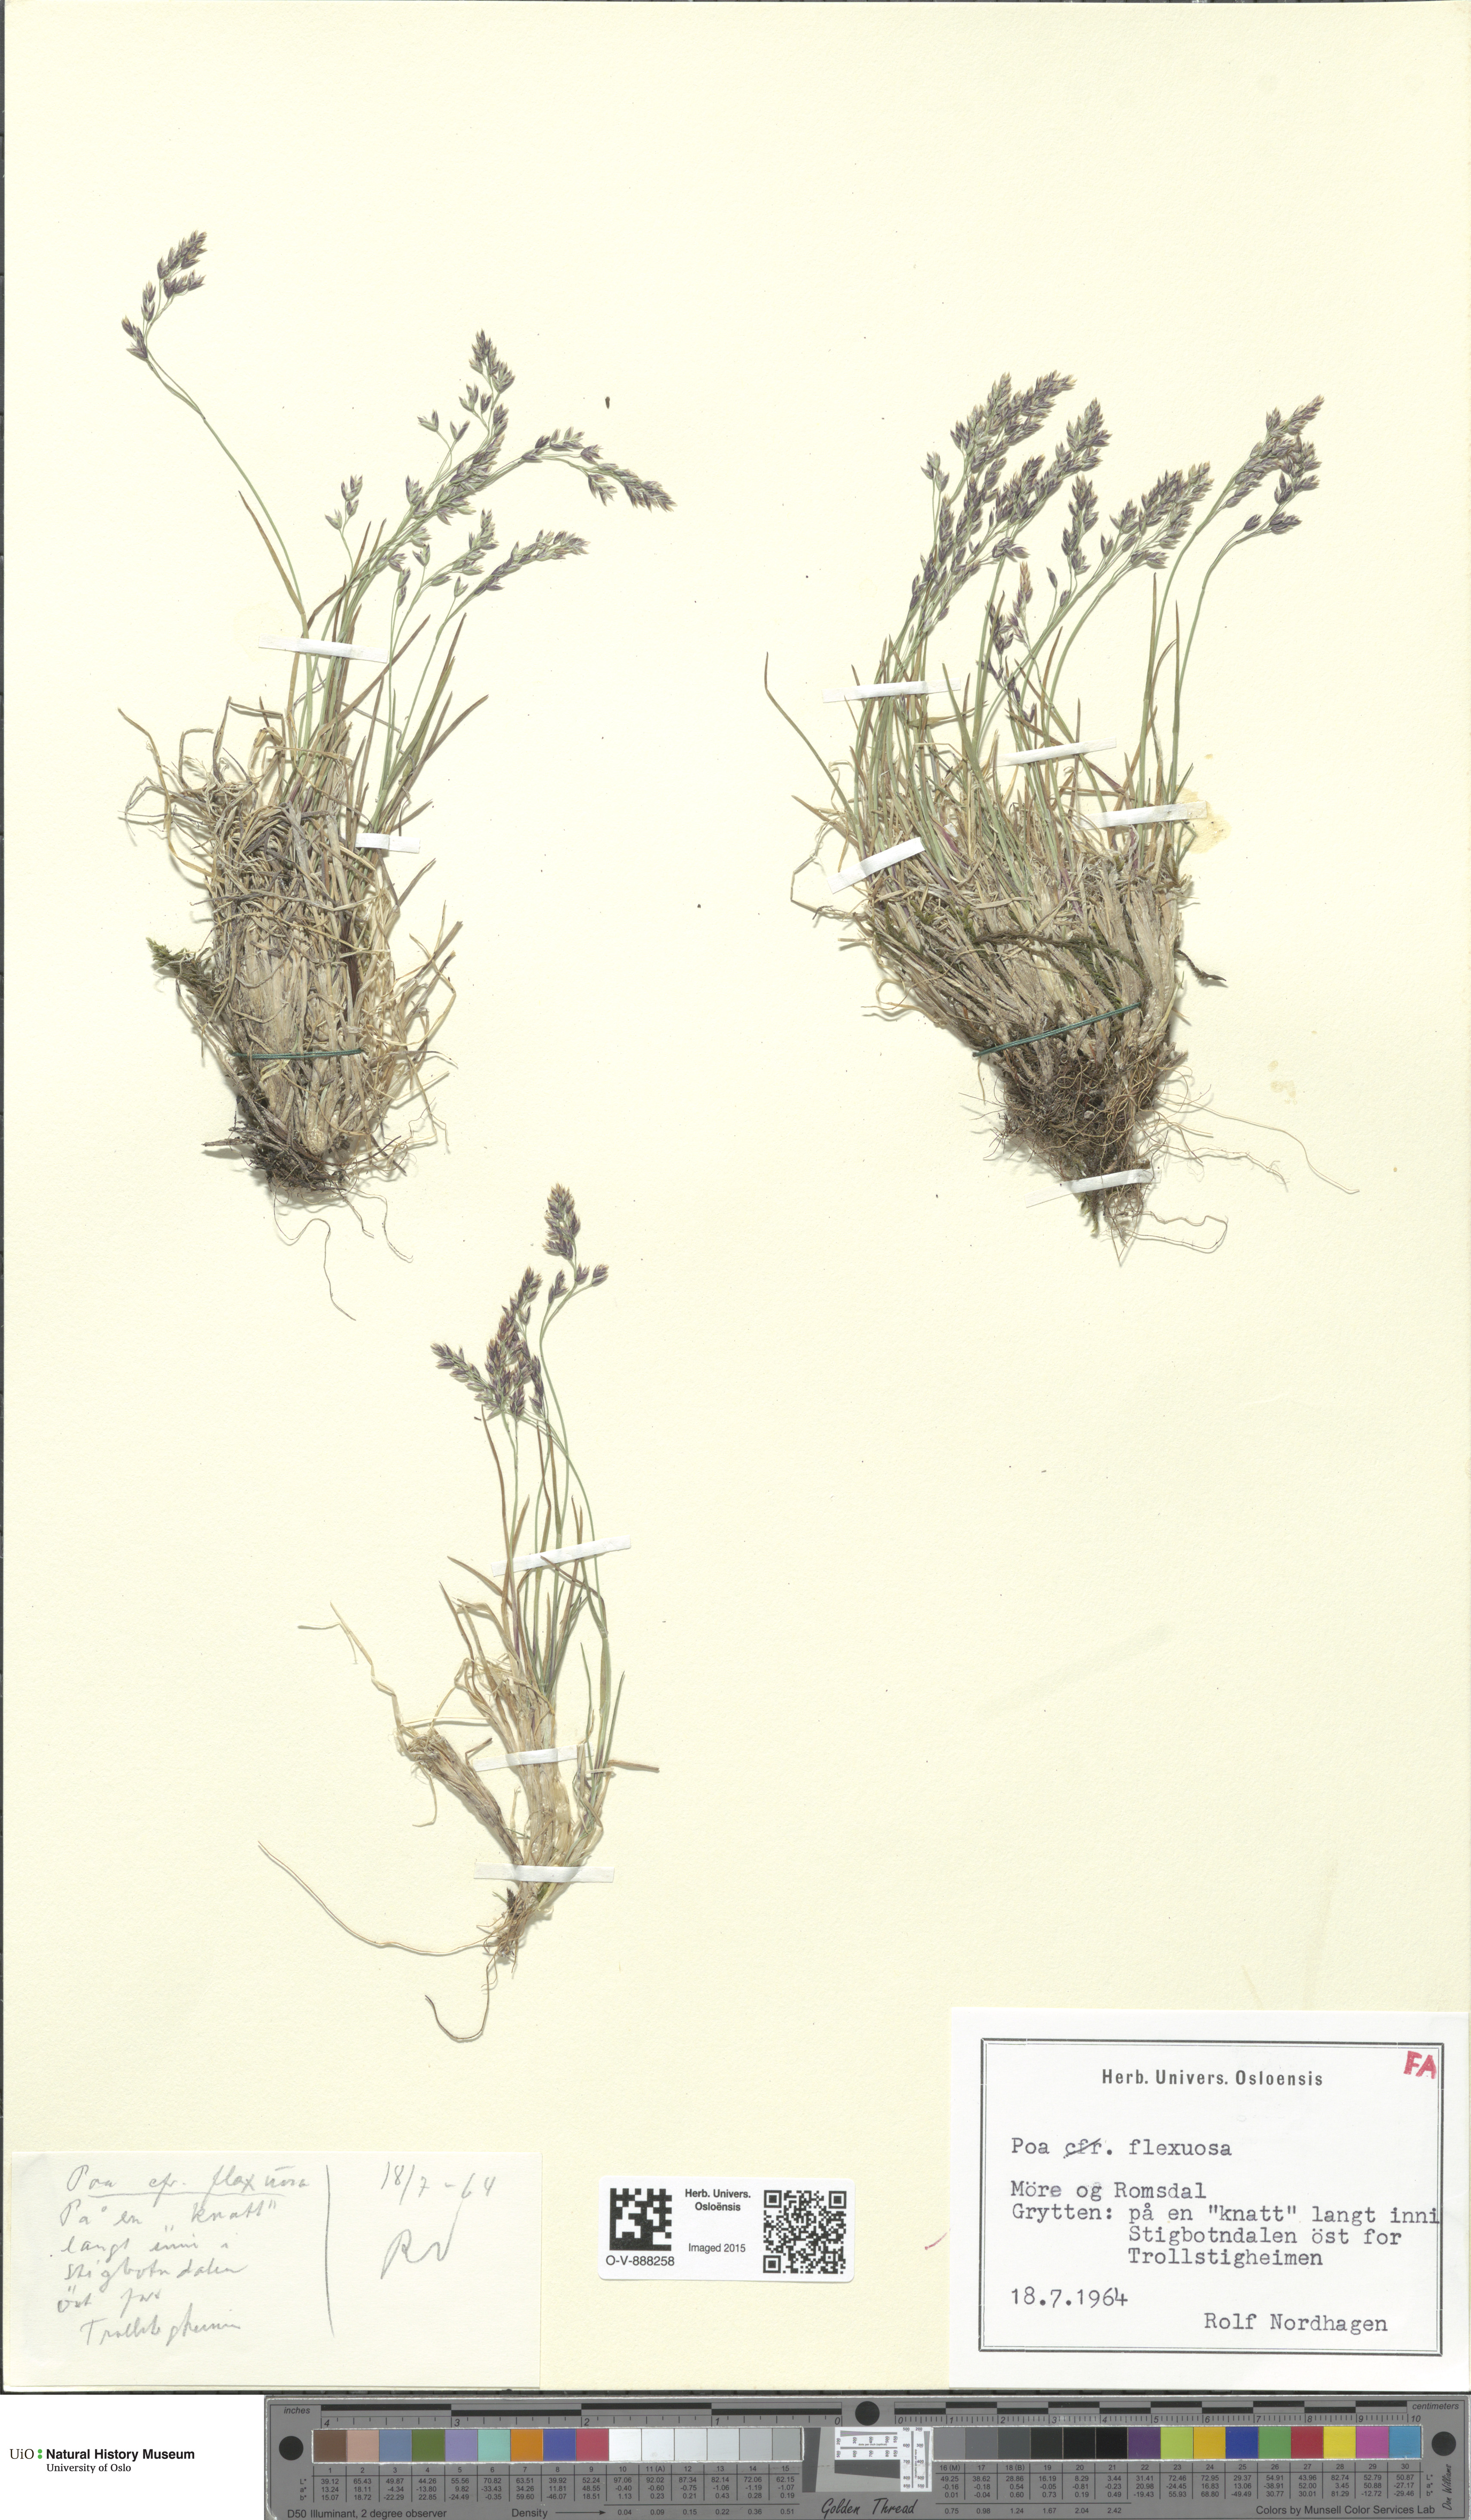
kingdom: Plantae
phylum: Tracheophyta
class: Liliopsida
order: Poales
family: Poaceae
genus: Poa
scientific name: Poa flexuosa
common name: Wavy meadow-grass
